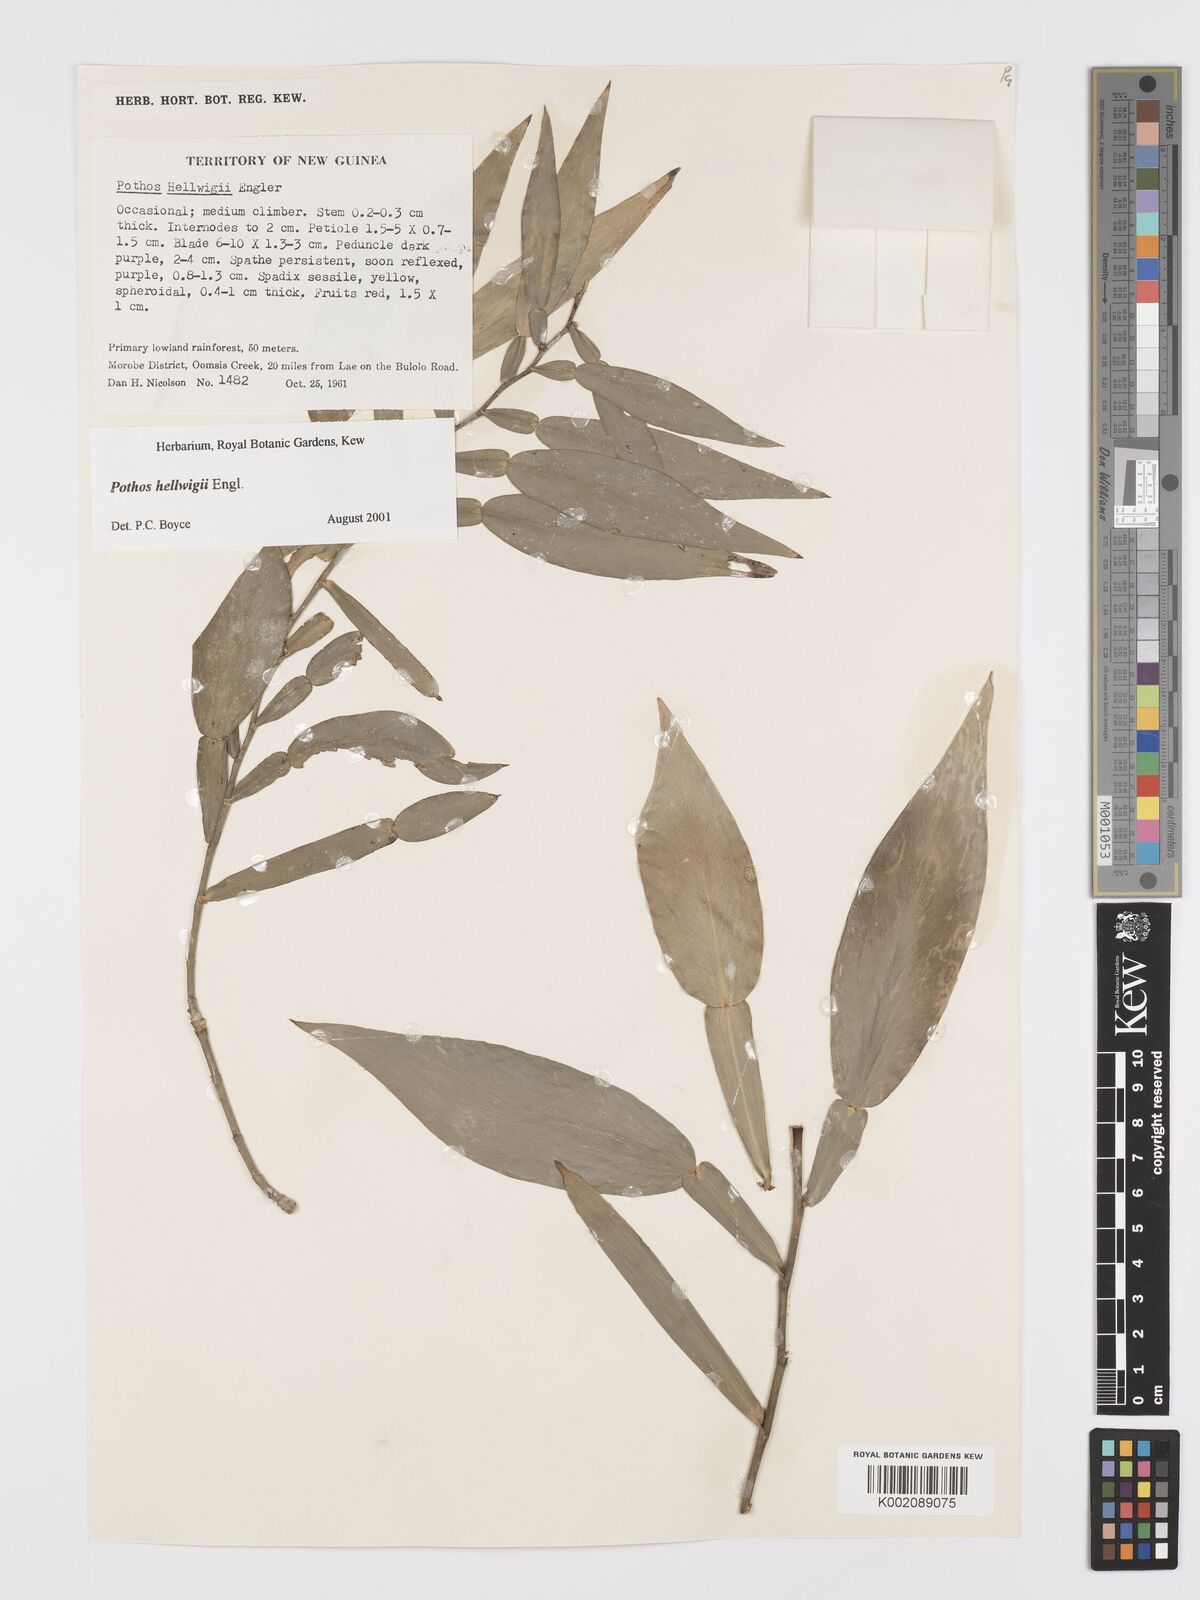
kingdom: Plantae
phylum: Tracheophyta
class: Liliopsida
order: Alismatales
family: Araceae
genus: Pothos
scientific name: Pothos hellwigii
